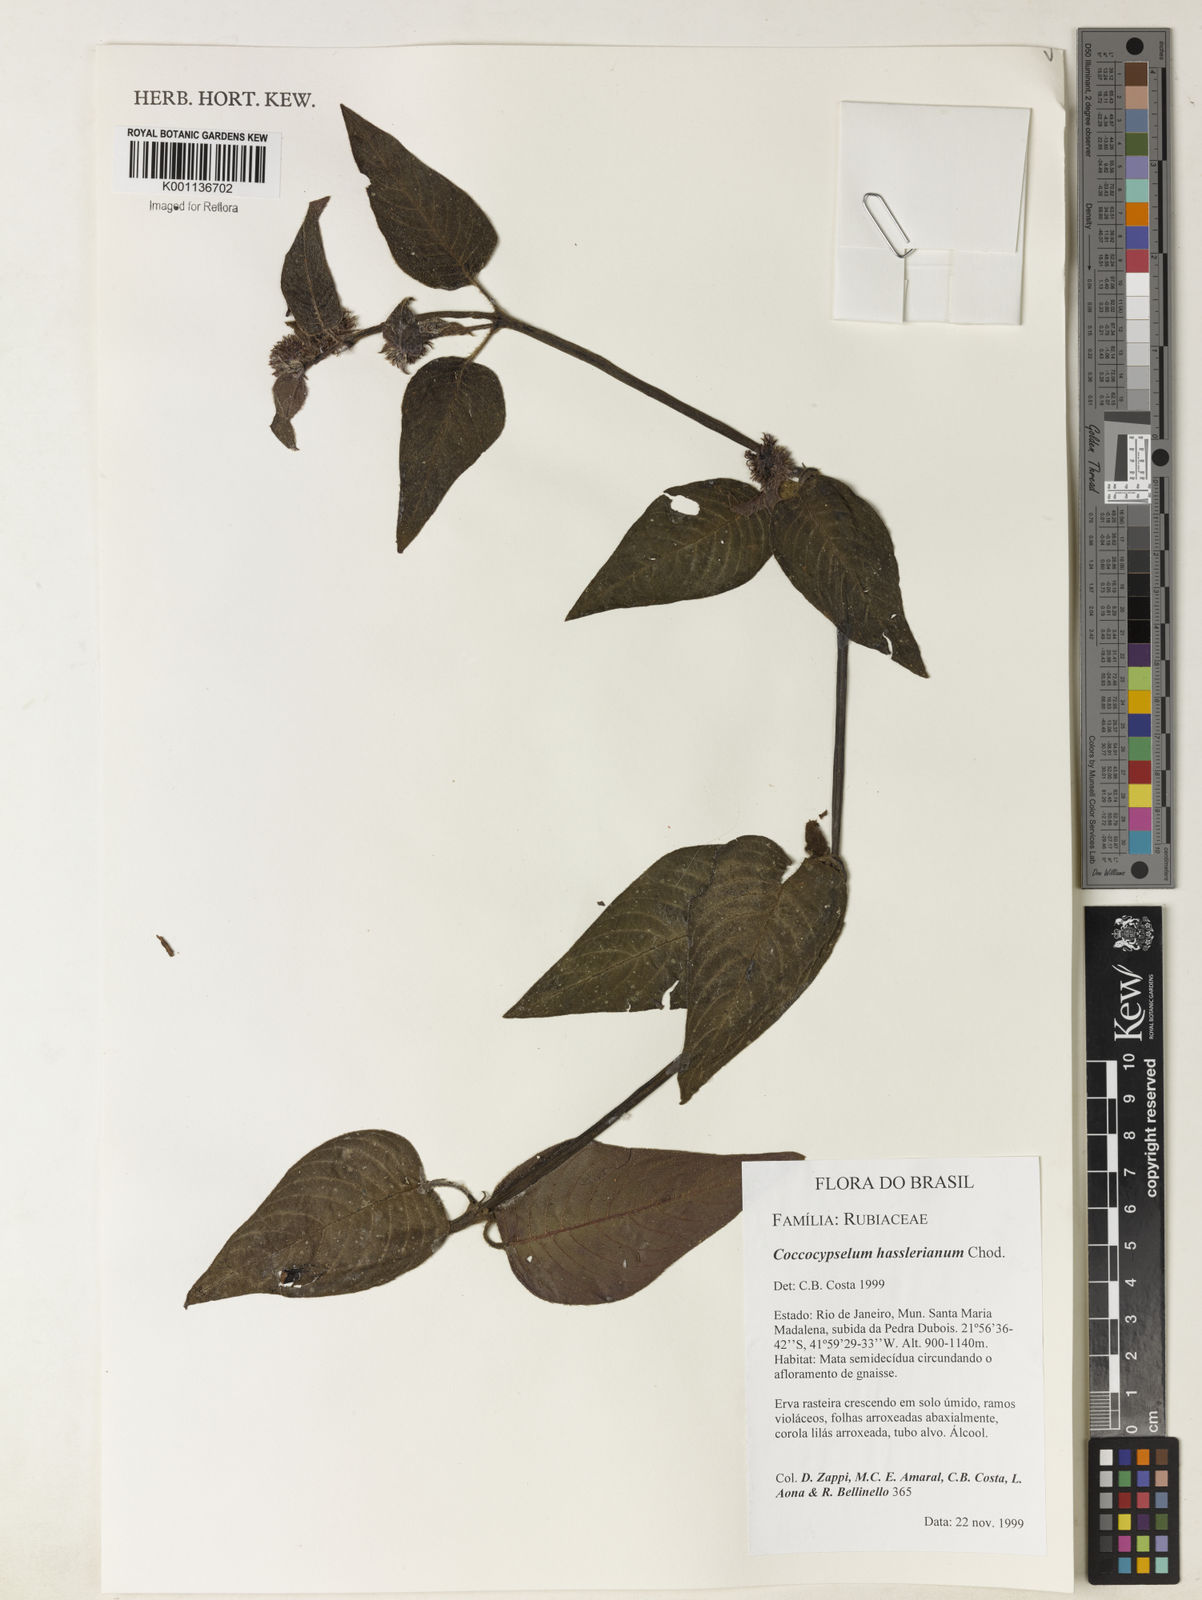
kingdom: Plantae
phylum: Tracheophyta
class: Magnoliopsida
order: Gentianales
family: Rubiaceae
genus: Coccocypselum
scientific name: Coccocypselum hasslerianum
